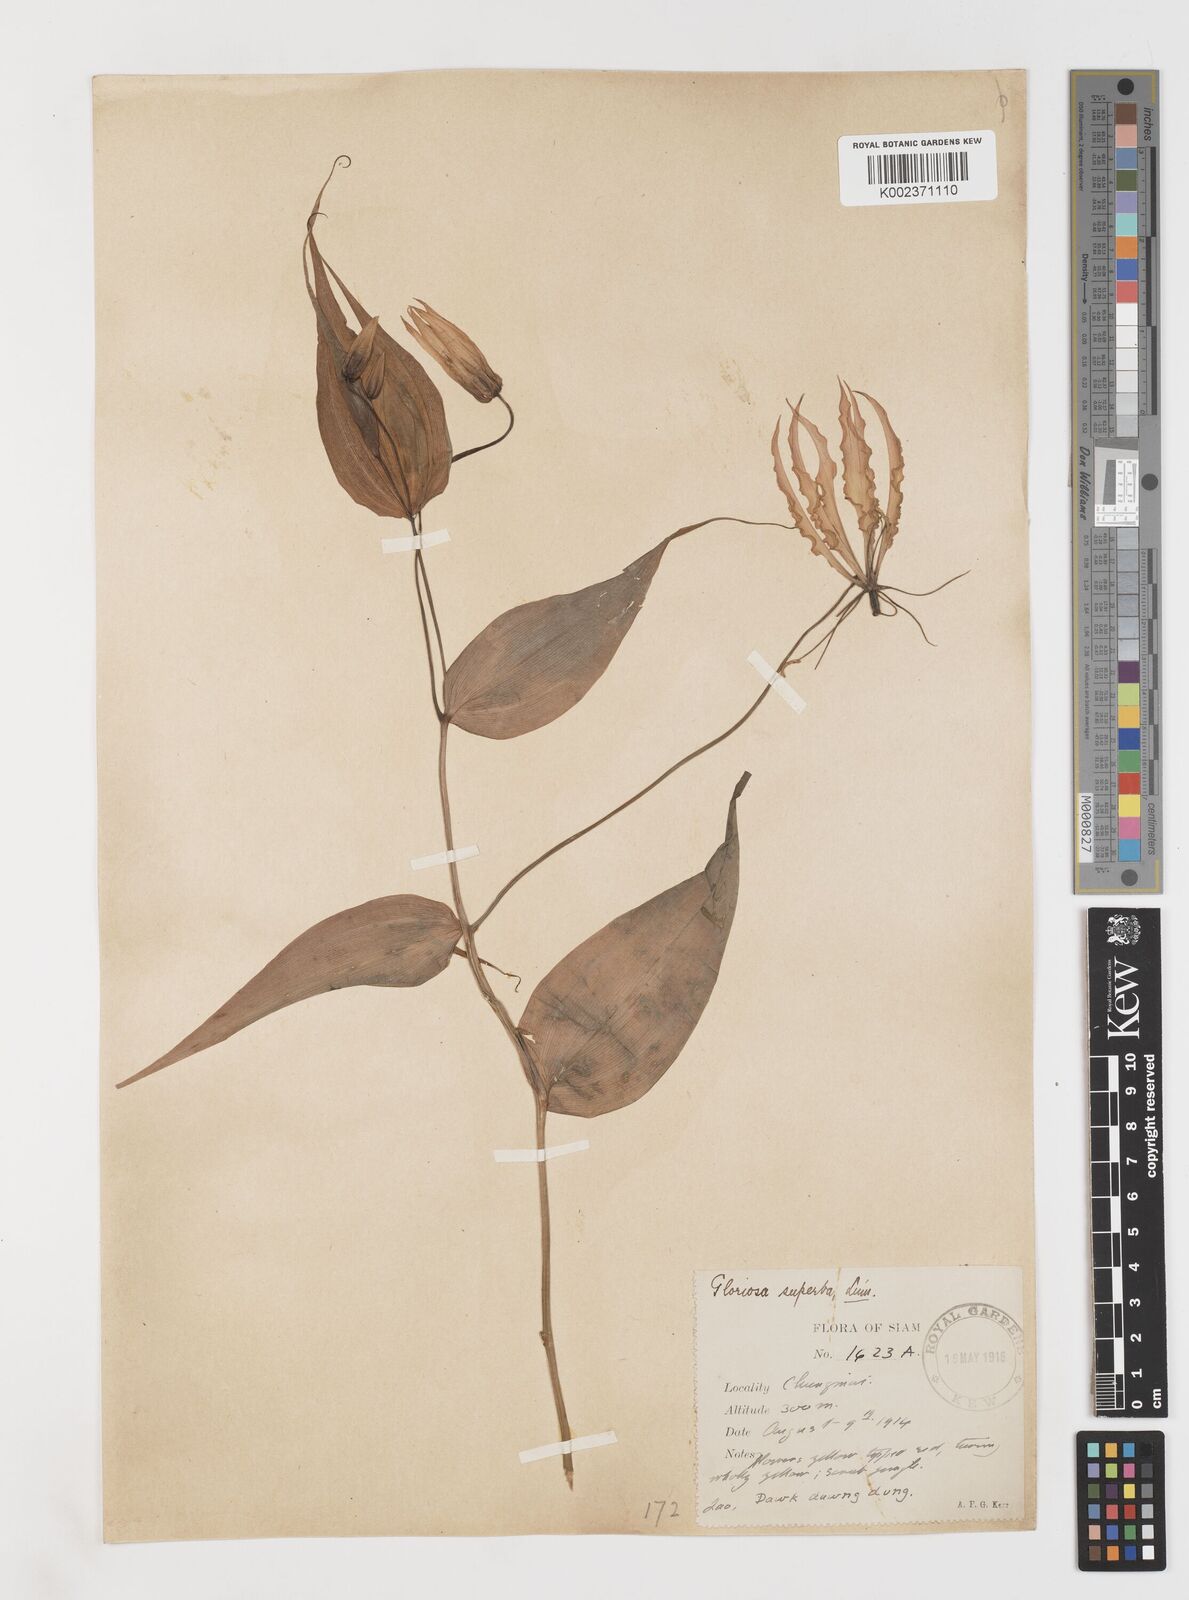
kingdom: Plantae
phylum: Tracheophyta
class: Liliopsida
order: Liliales
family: Colchicaceae
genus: Gloriosa
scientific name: Gloriosa superba
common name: Flame lily
